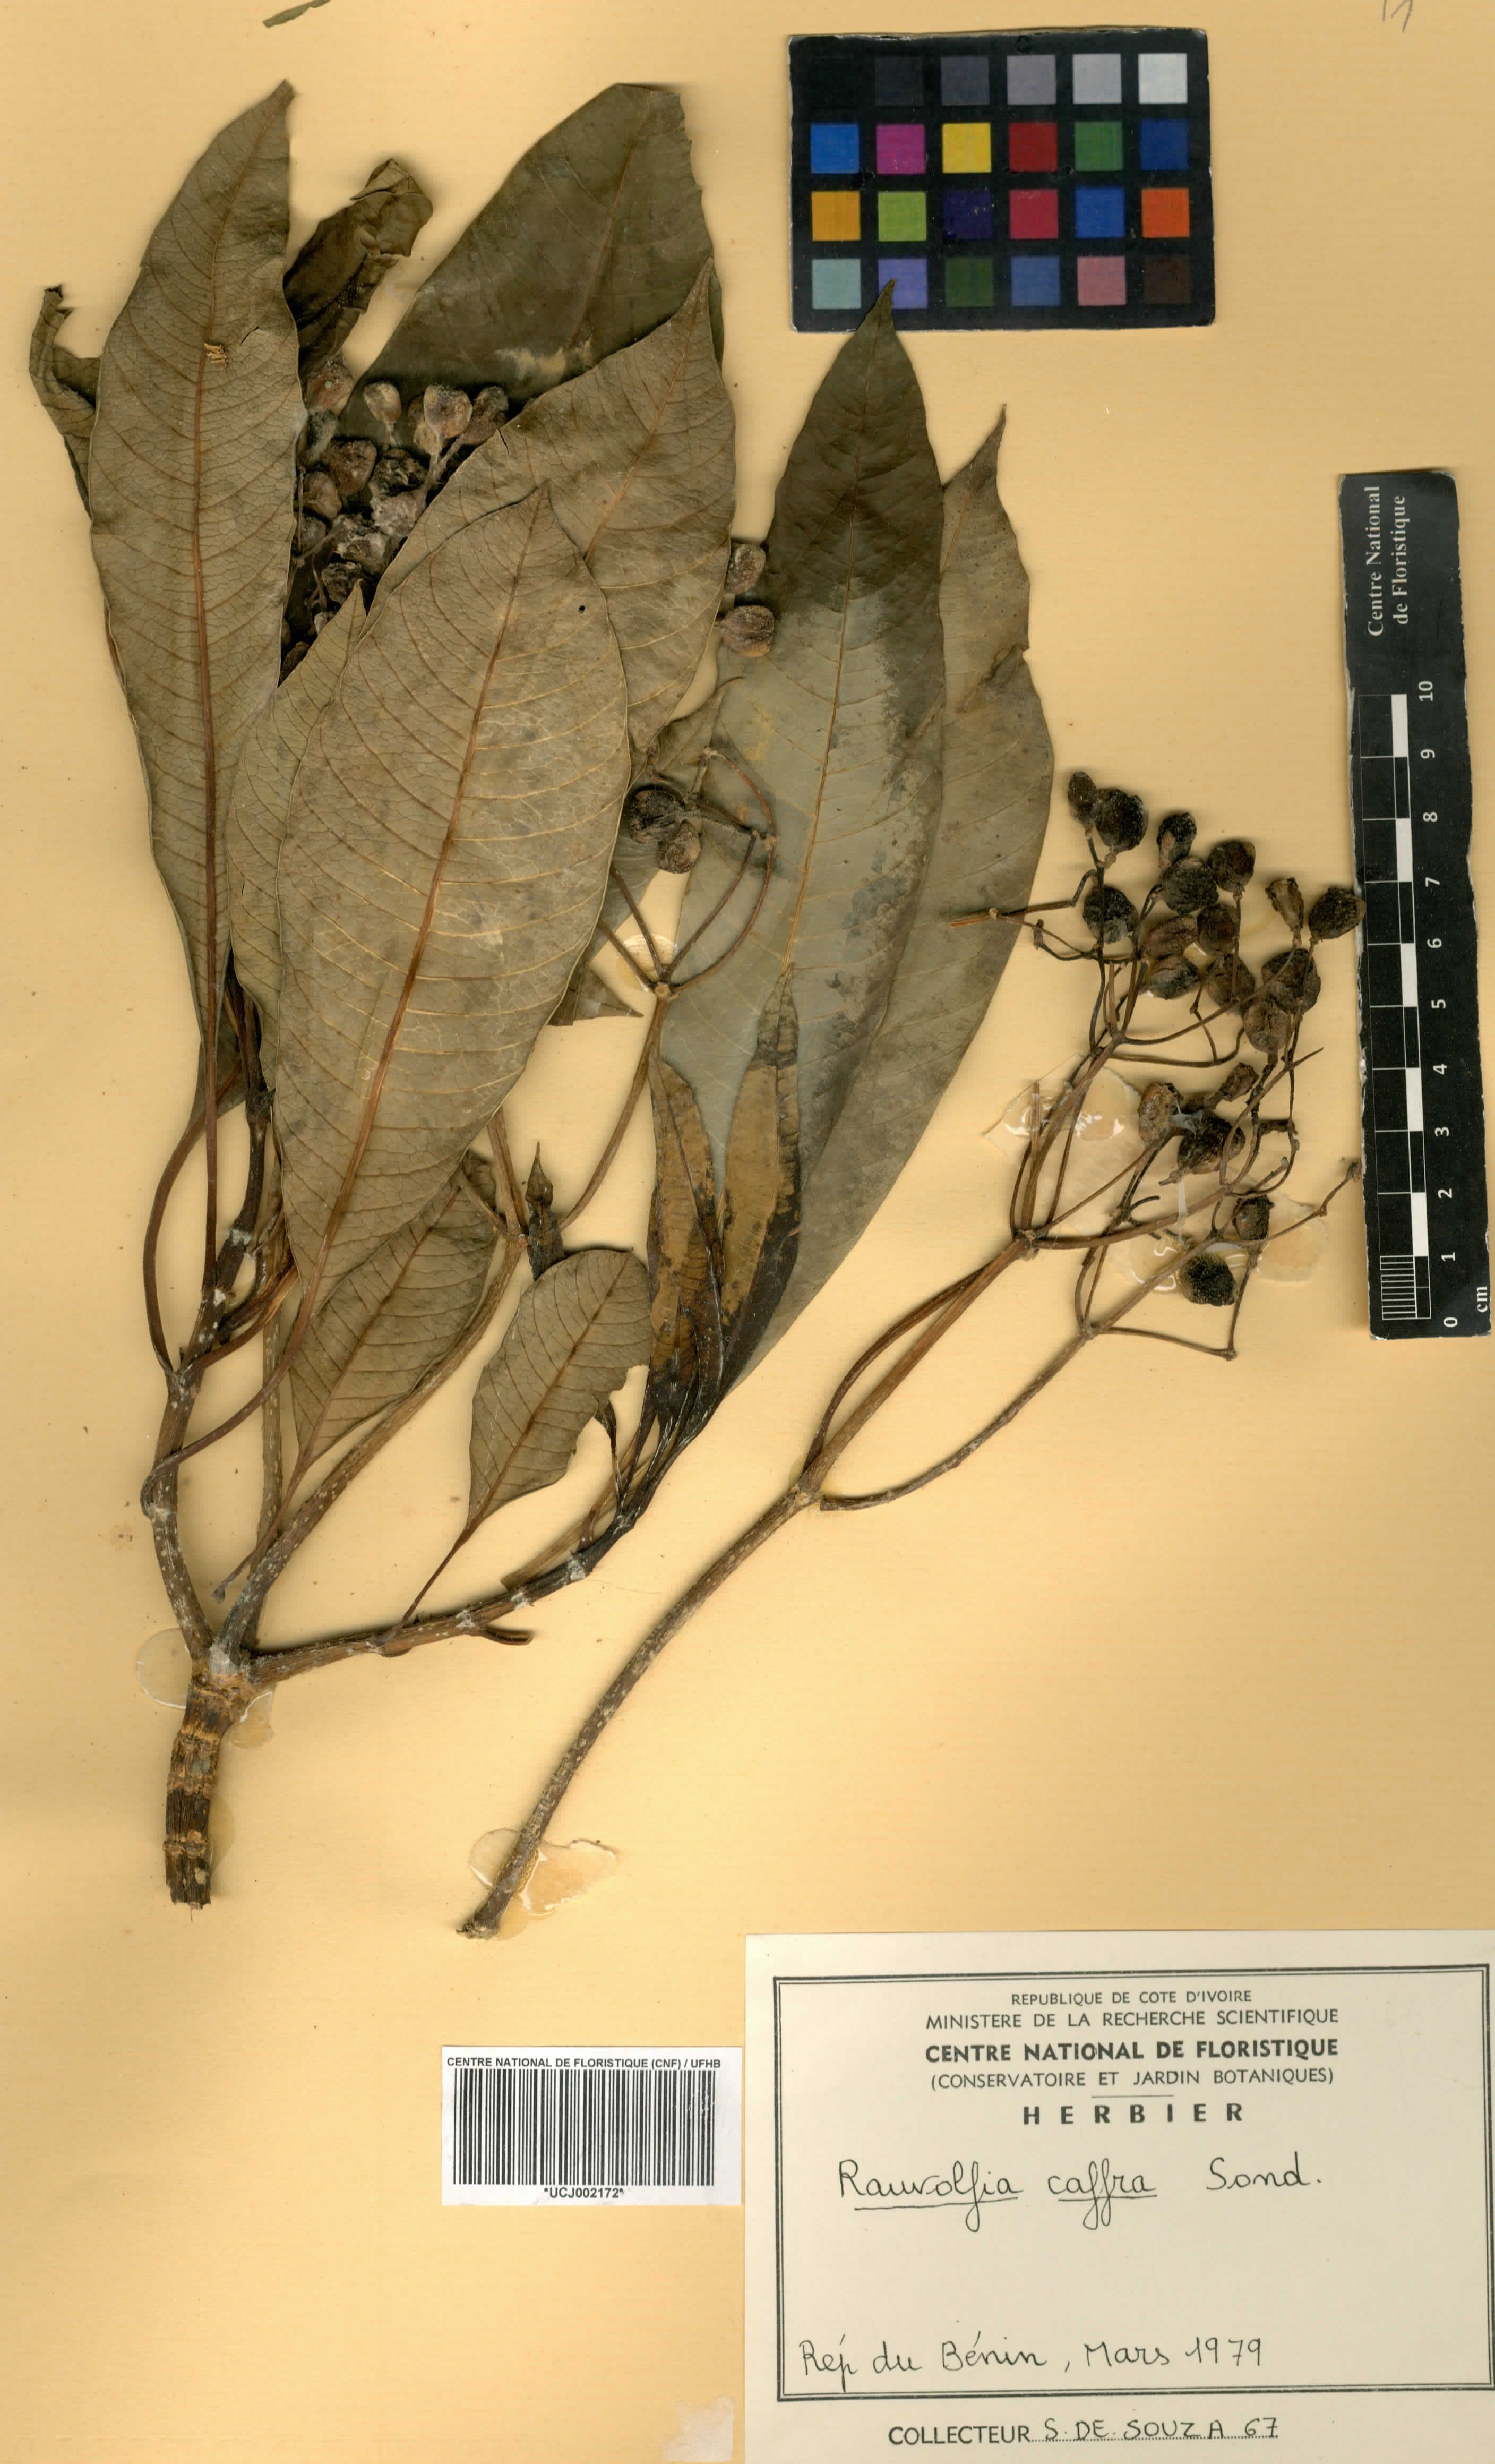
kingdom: Plantae
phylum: Tracheophyta
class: Magnoliopsida
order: Gentianales
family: Apocynaceae
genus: Rauvolfia
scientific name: Rauvolfia caffra
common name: Quininetree
